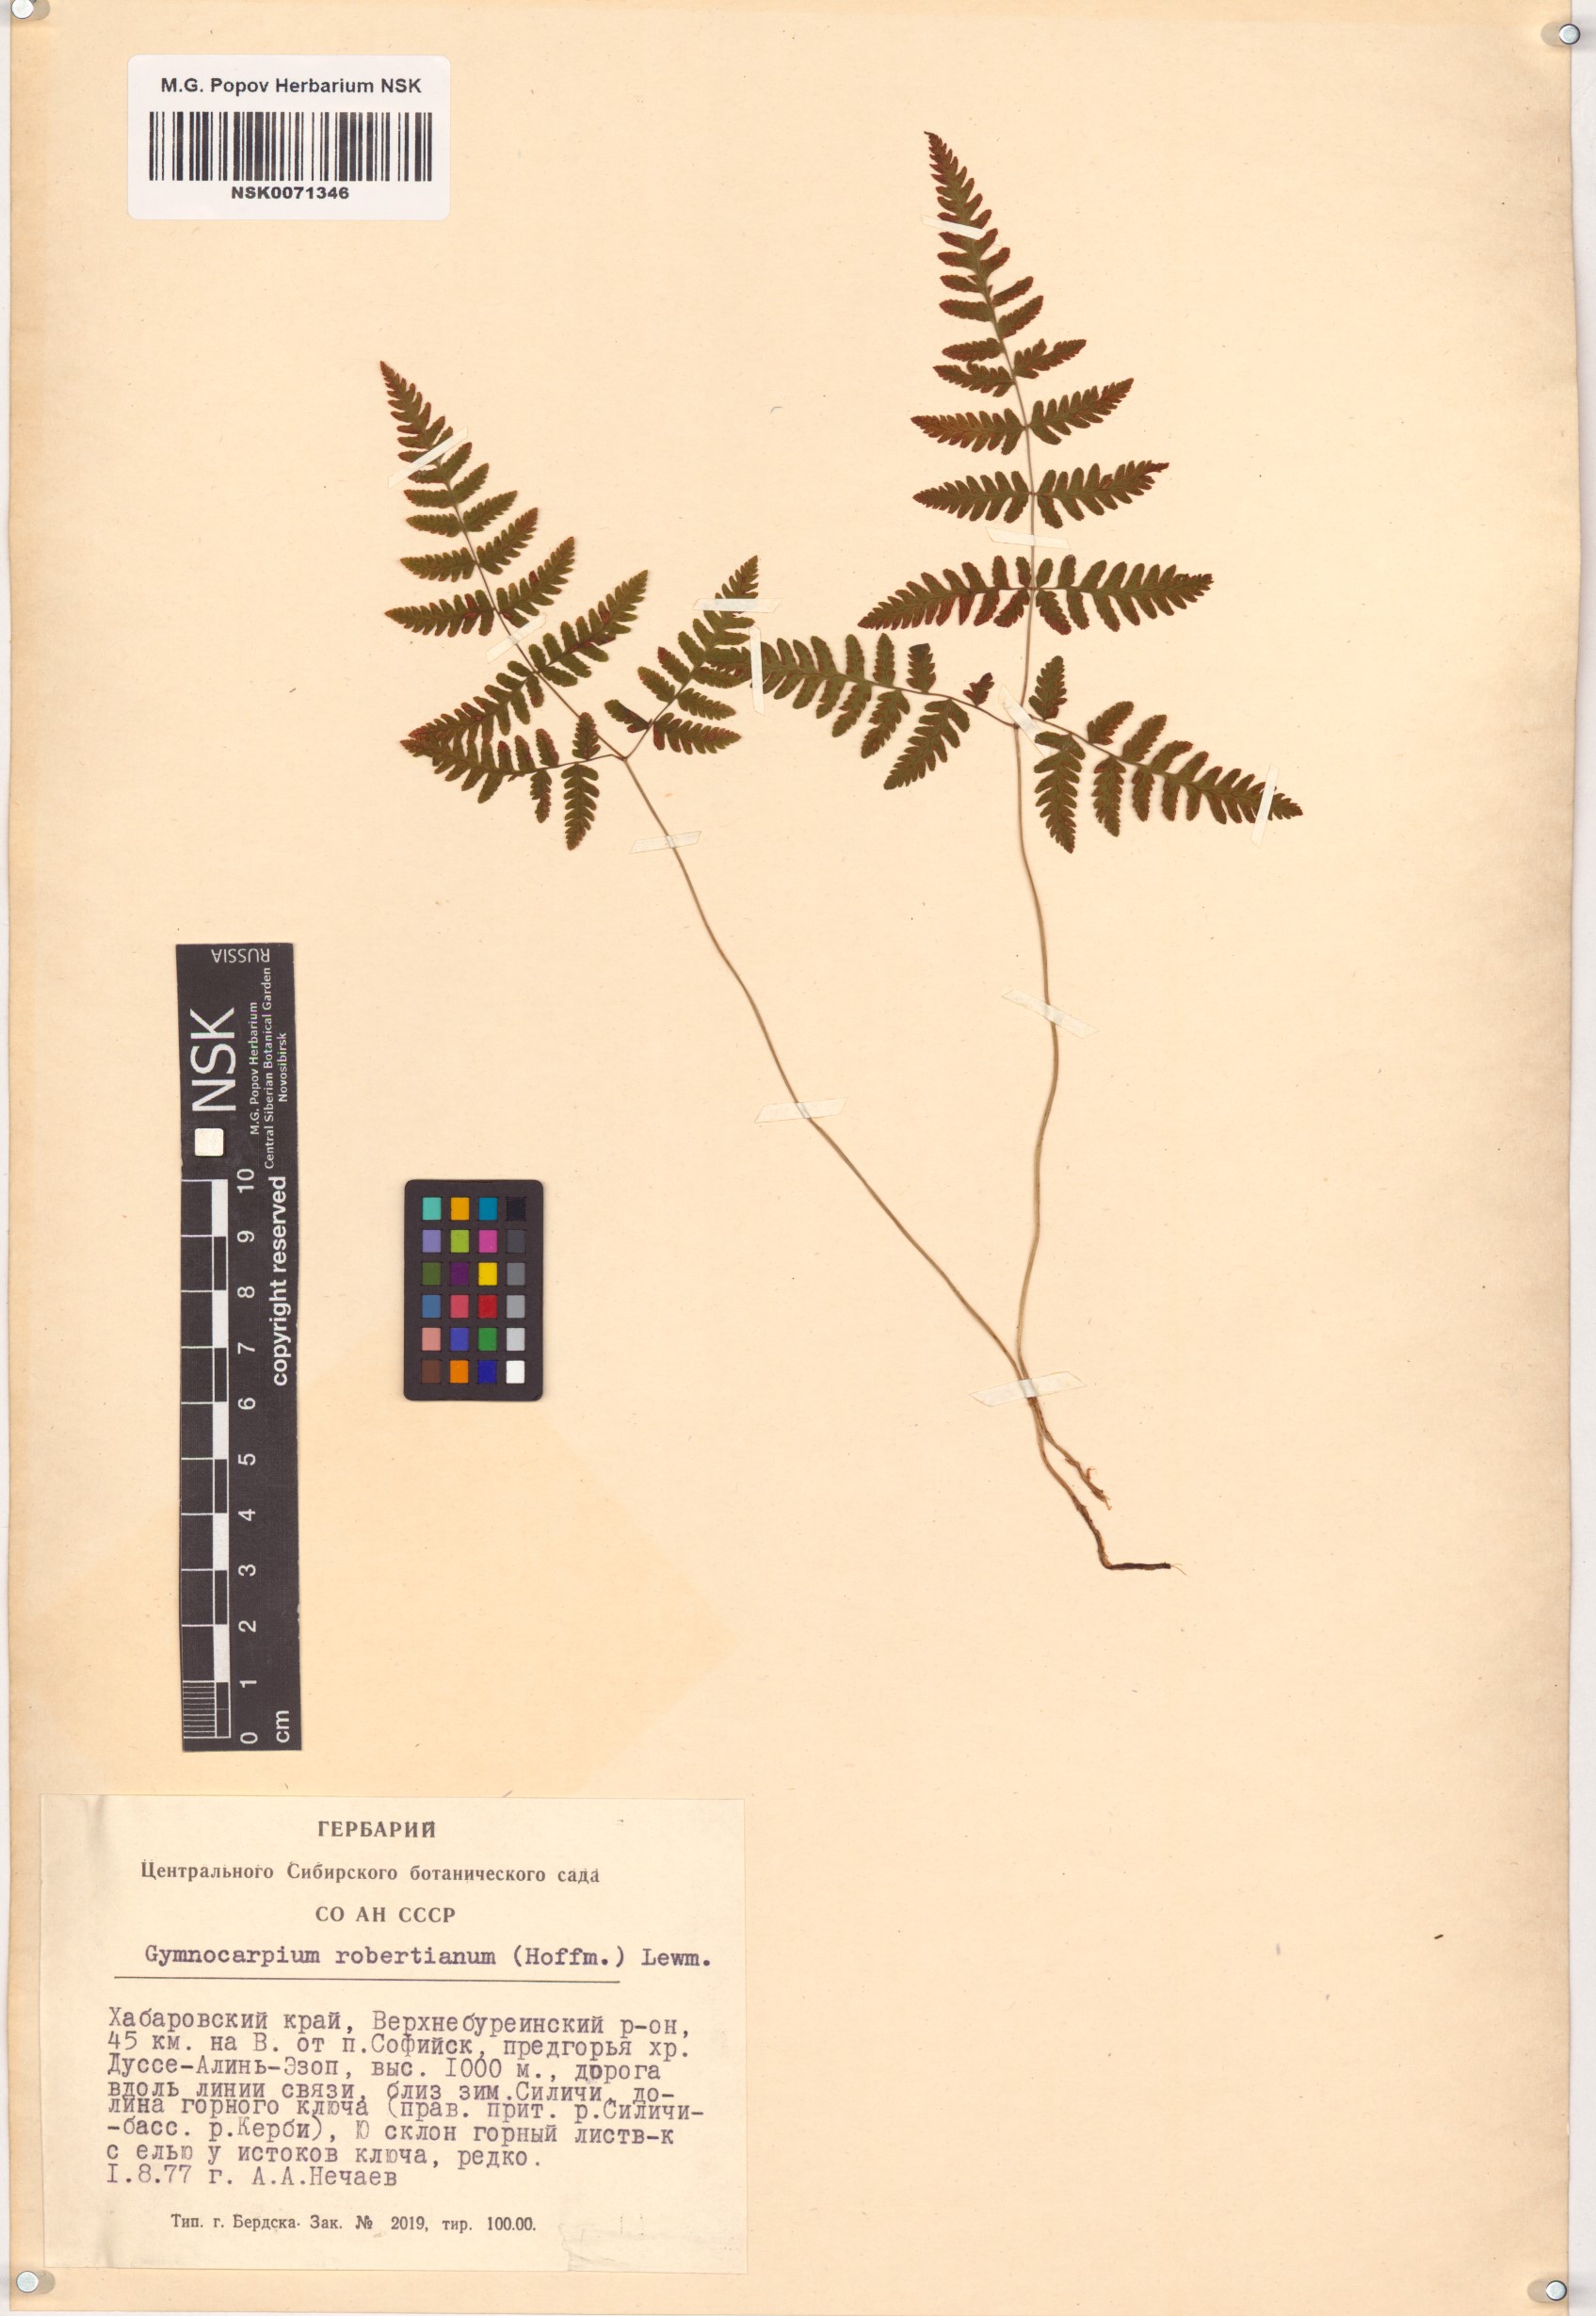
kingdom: Plantae
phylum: Tracheophyta
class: Polypodiopsida
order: Polypodiales
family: Cystopteridaceae
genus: Gymnocarpium
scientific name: Gymnocarpium robertianum
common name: Limestone fern
